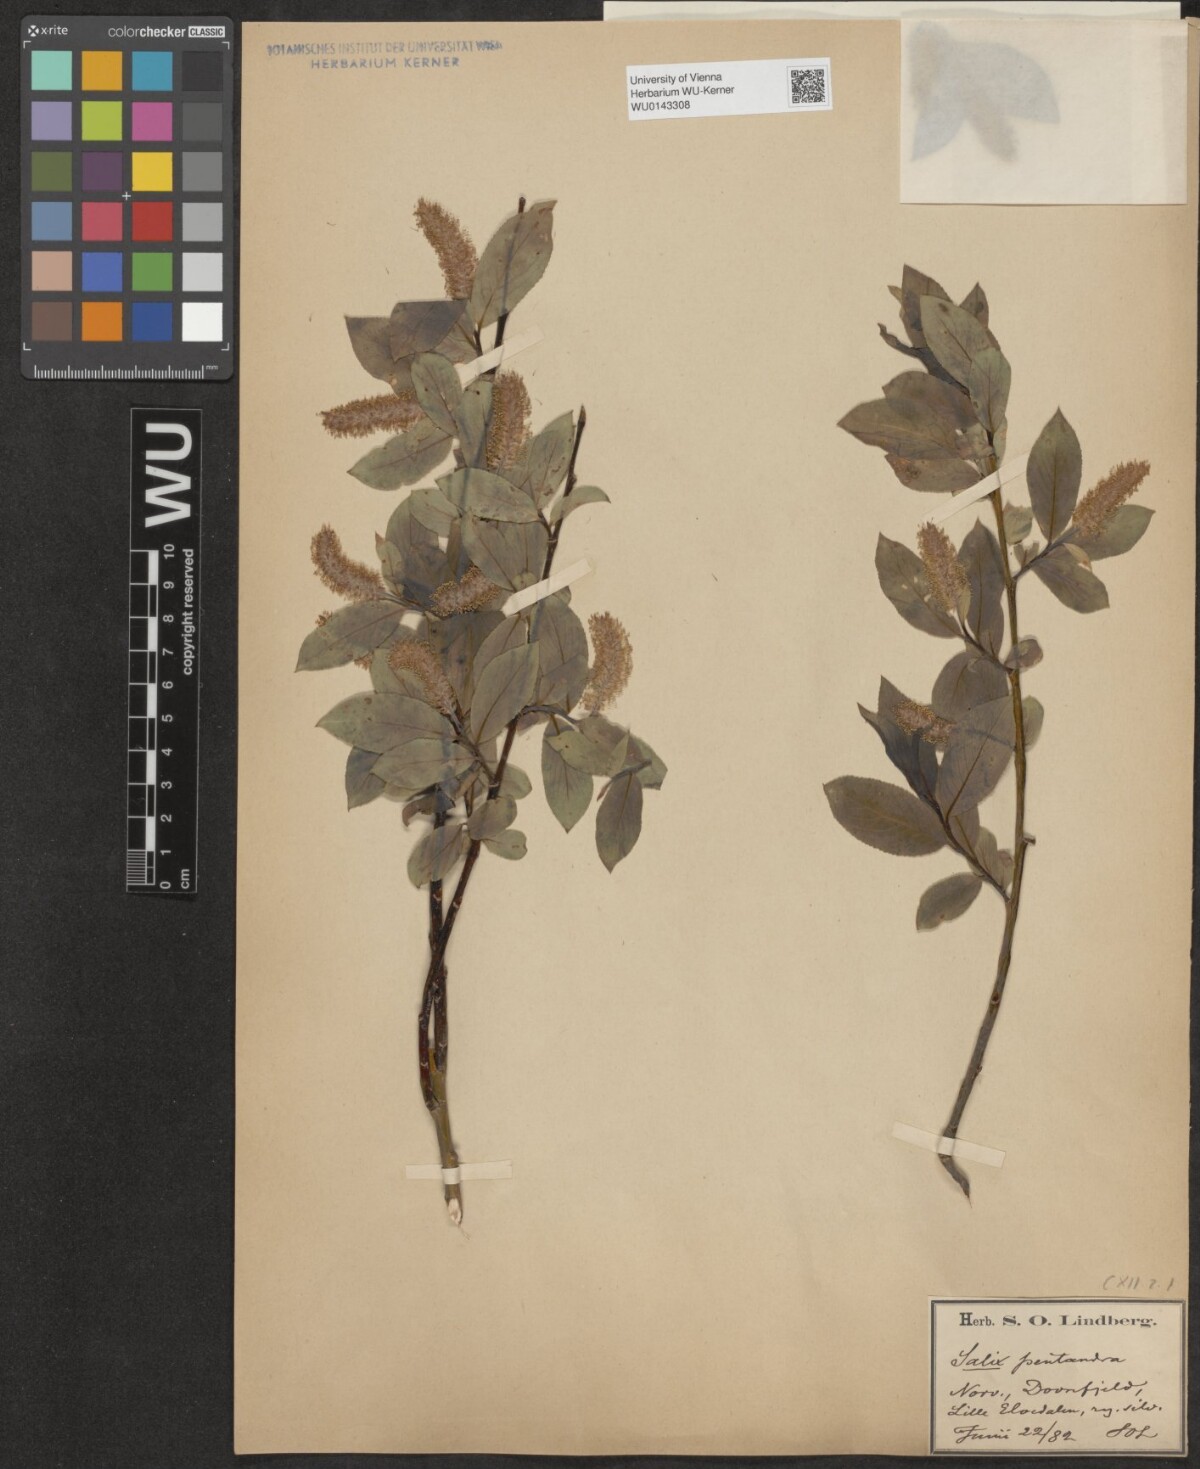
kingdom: Plantae
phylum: Tracheophyta
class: Magnoliopsida
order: Malpighiales
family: Salicaceae
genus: Salix
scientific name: Salix pentandra
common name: Bay willow
